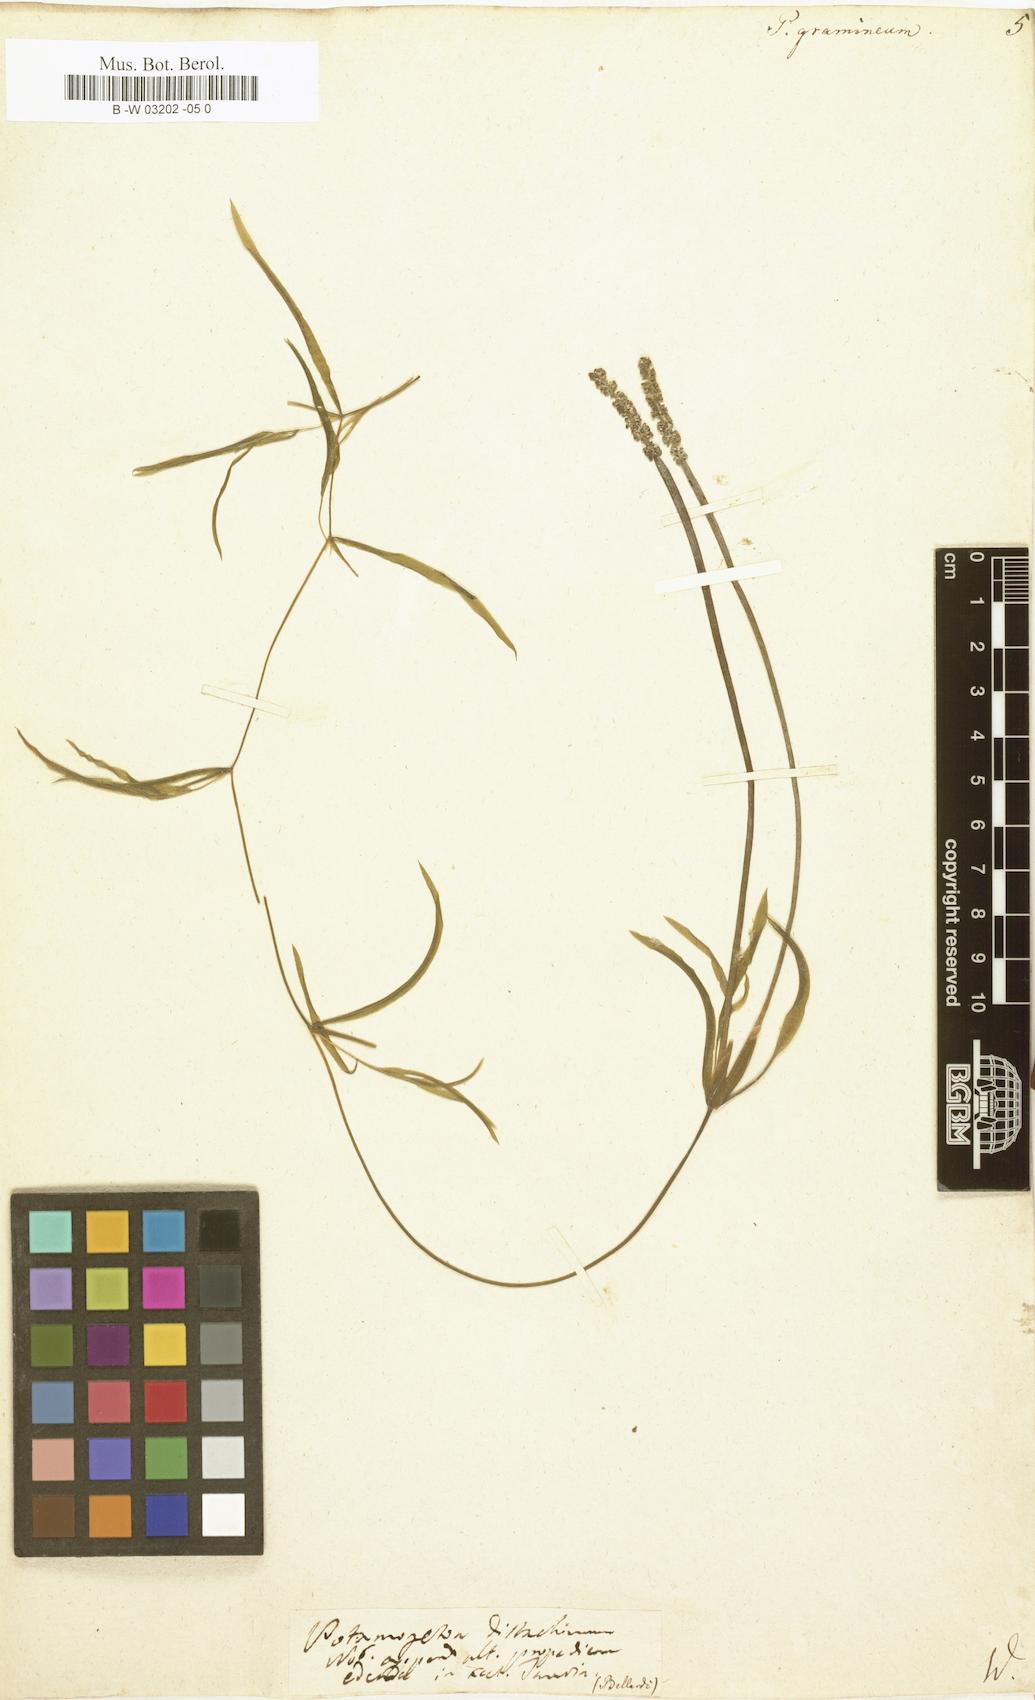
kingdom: Plantae
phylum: Tracheophyta
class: Liliopsida
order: Alismatales
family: Potamogetonaceae
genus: Potamogeton
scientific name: Potamogeton gramineus
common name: Various-leaved pondweed
